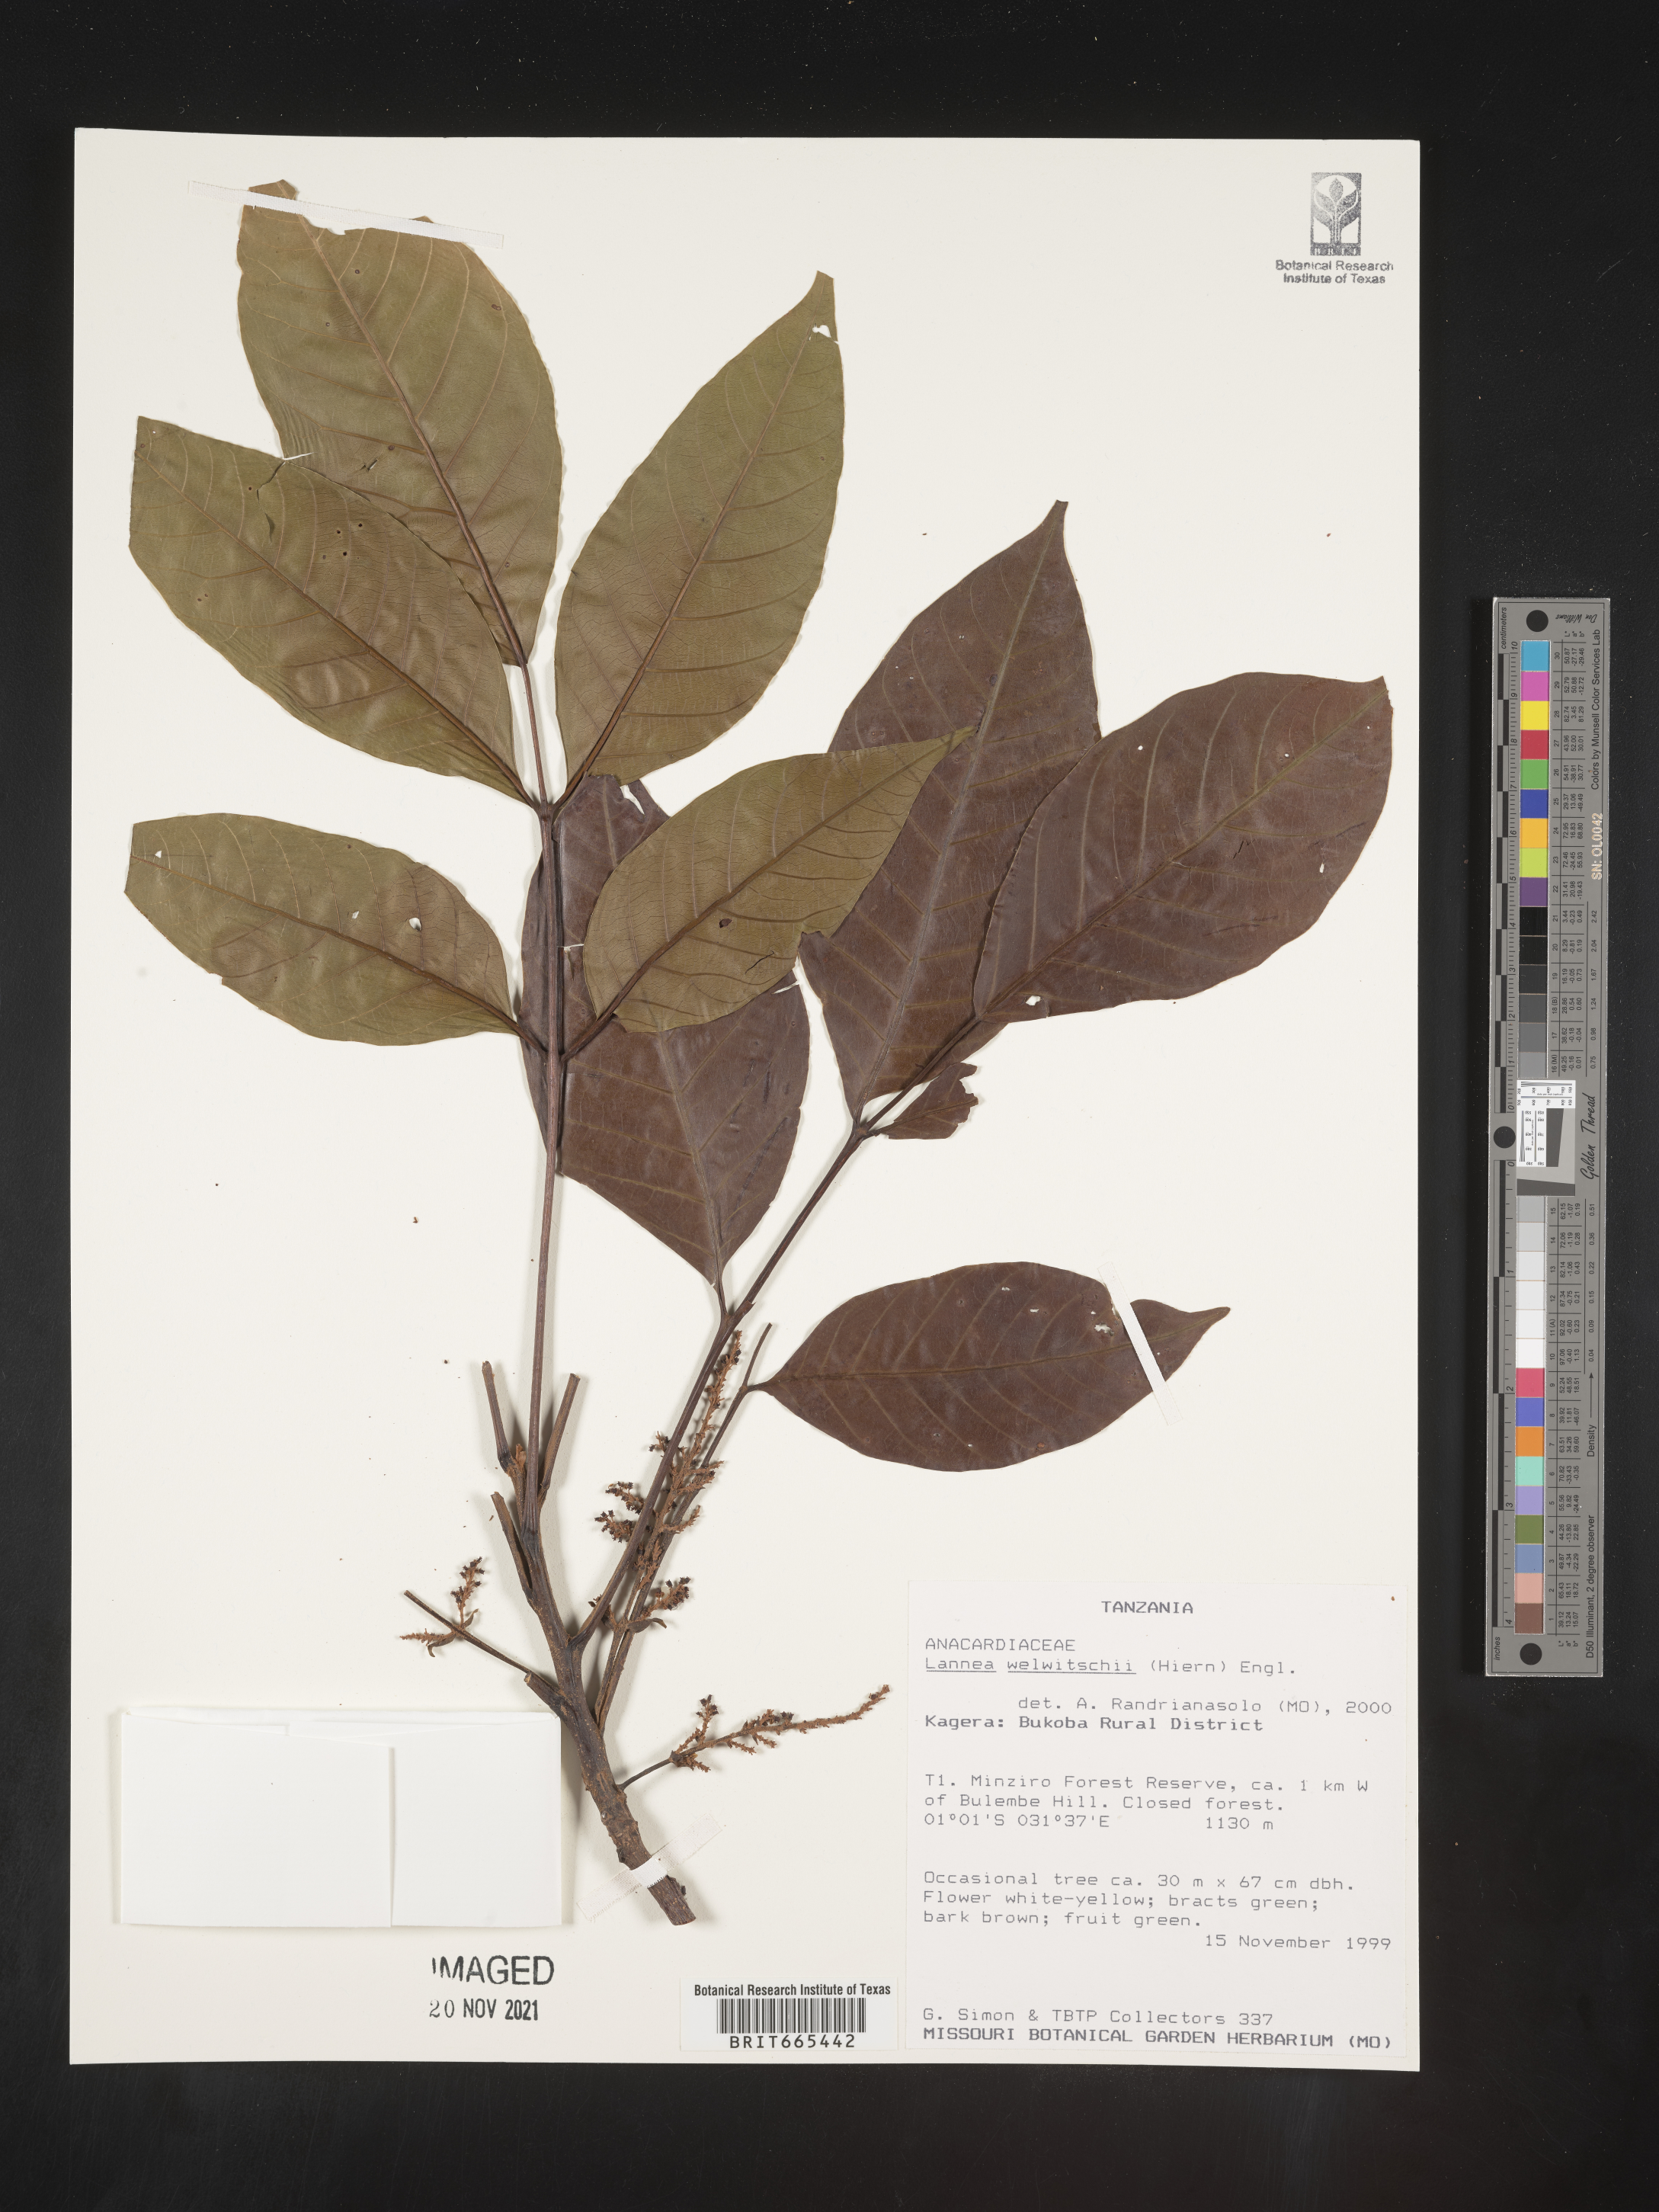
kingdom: Plantae
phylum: Tracheophyta
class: Magnoliopsida
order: Sapindales
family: Anacardiaceae
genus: Lannea
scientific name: Lannea
